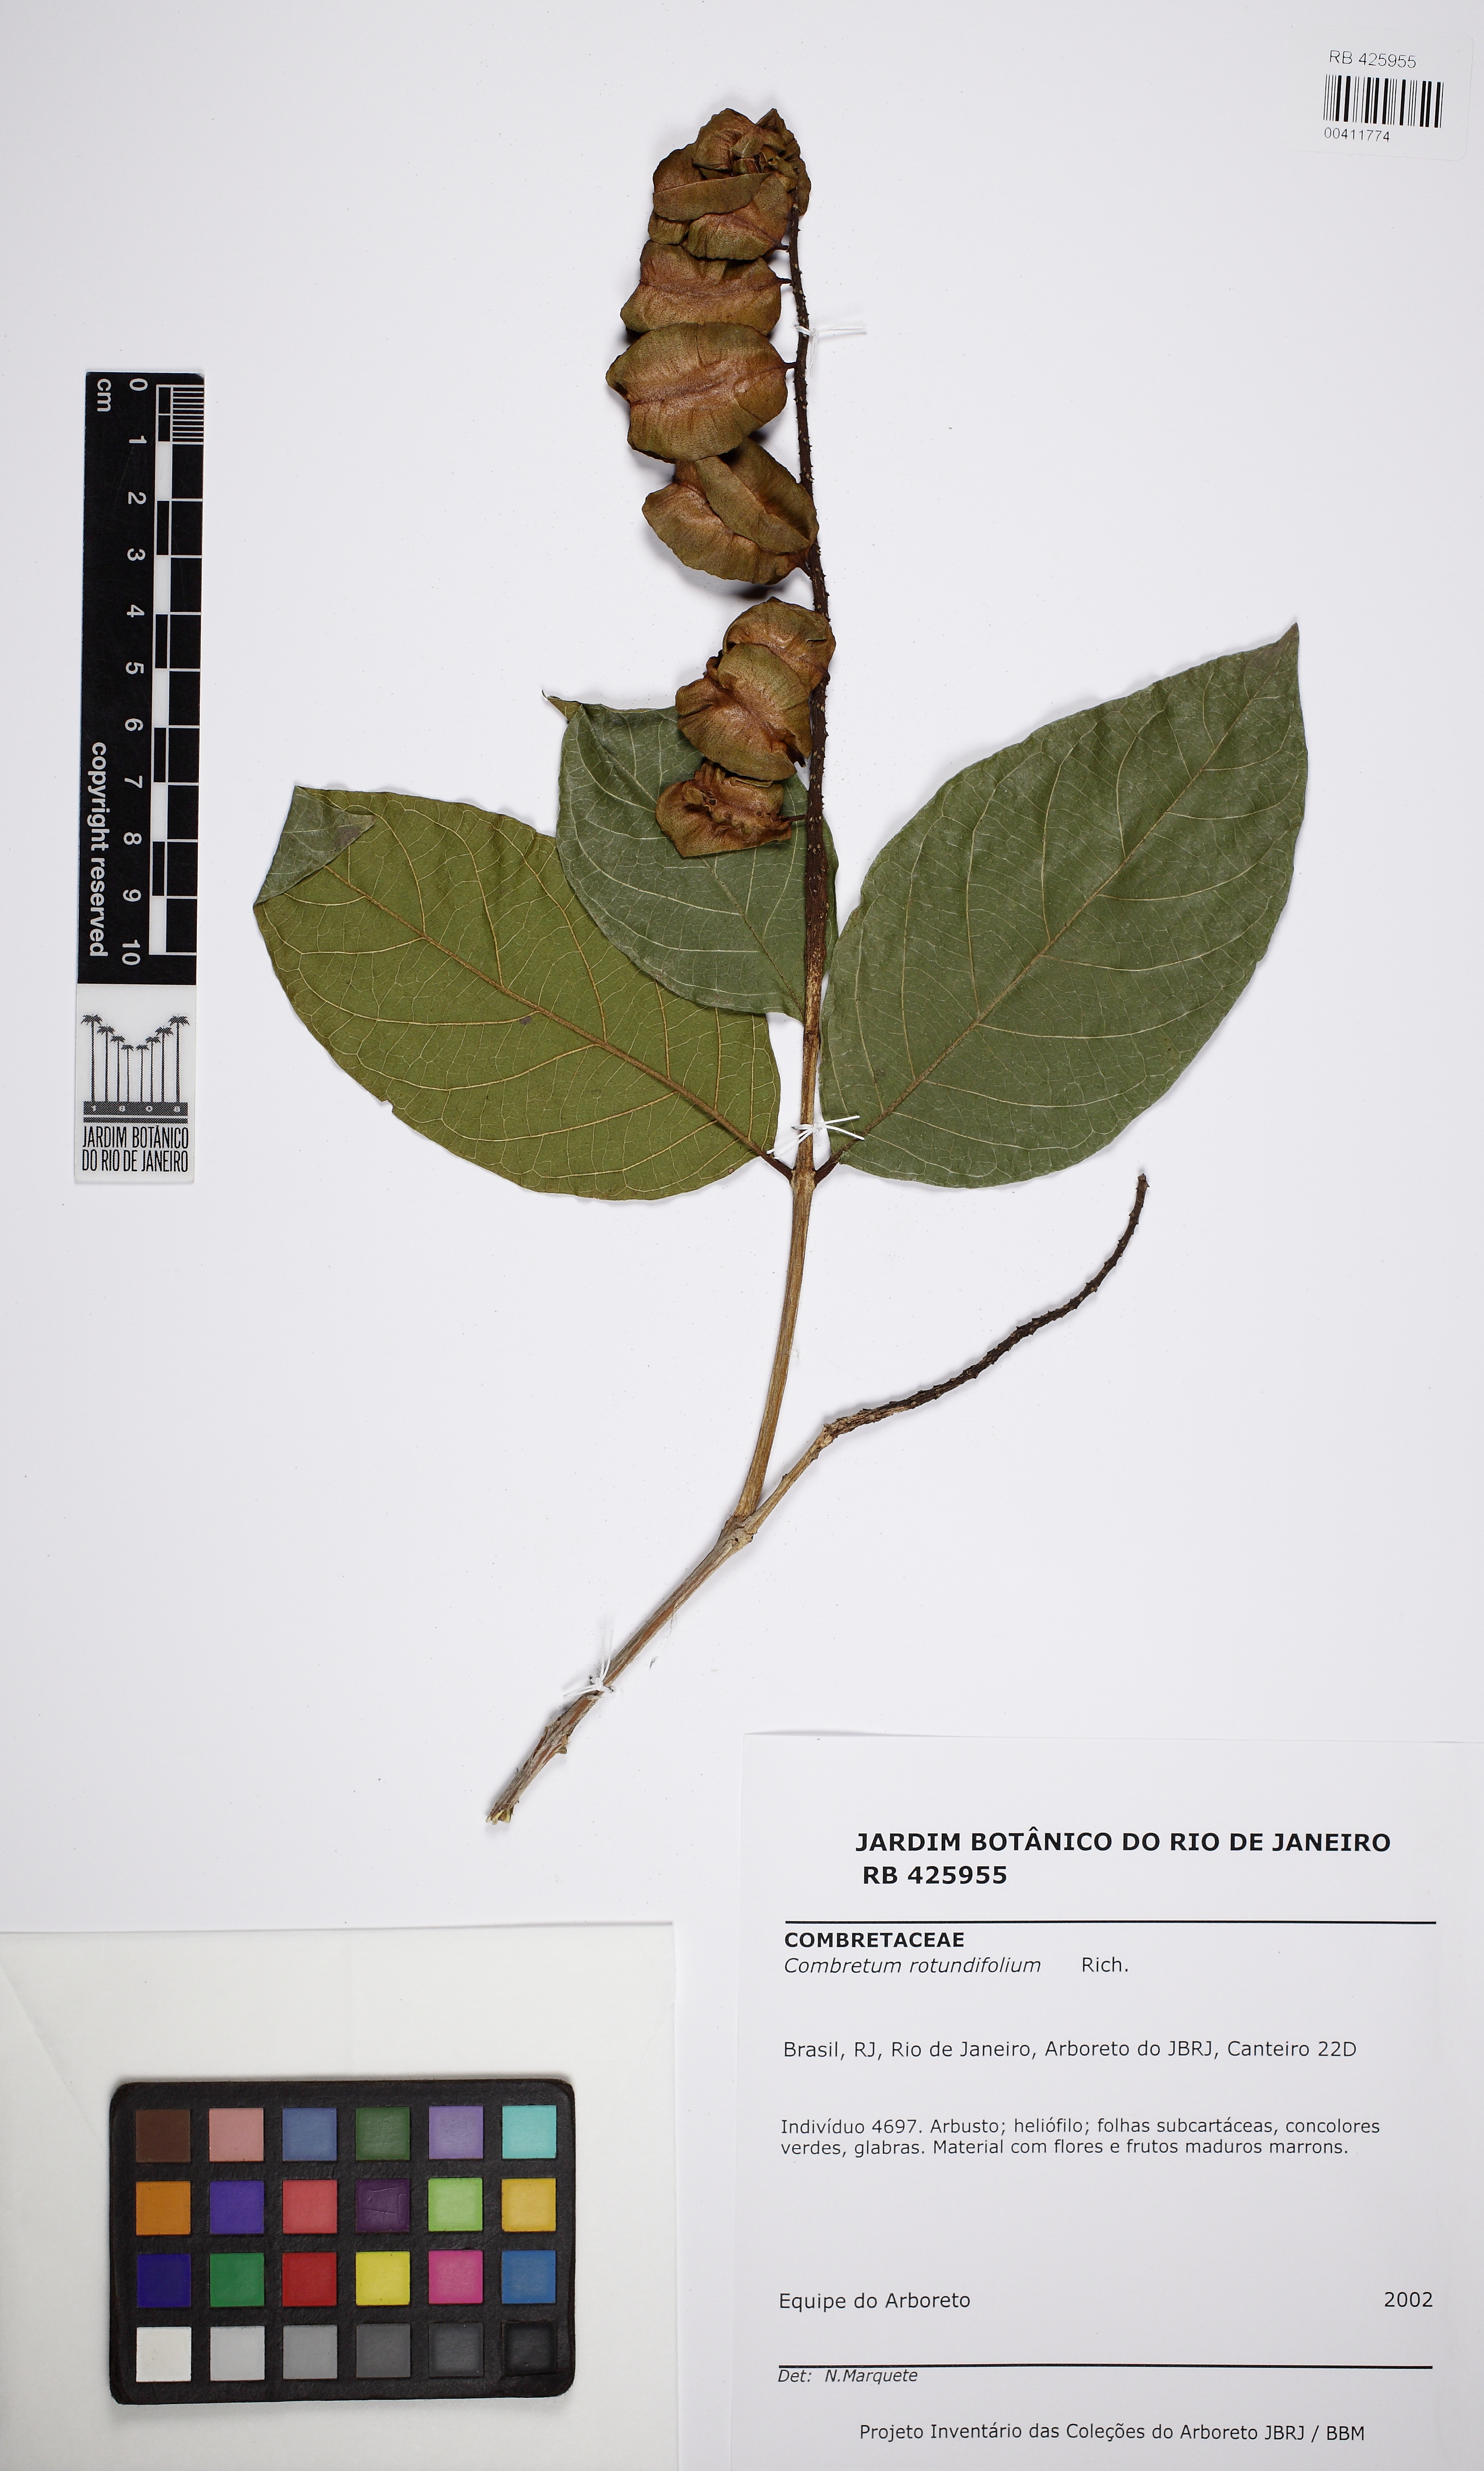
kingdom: Plantae
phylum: Tracheophyta
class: Magnoliopsida
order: Myrtales
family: Combretaceae
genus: Combretum
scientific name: Combretum rotundifolium
